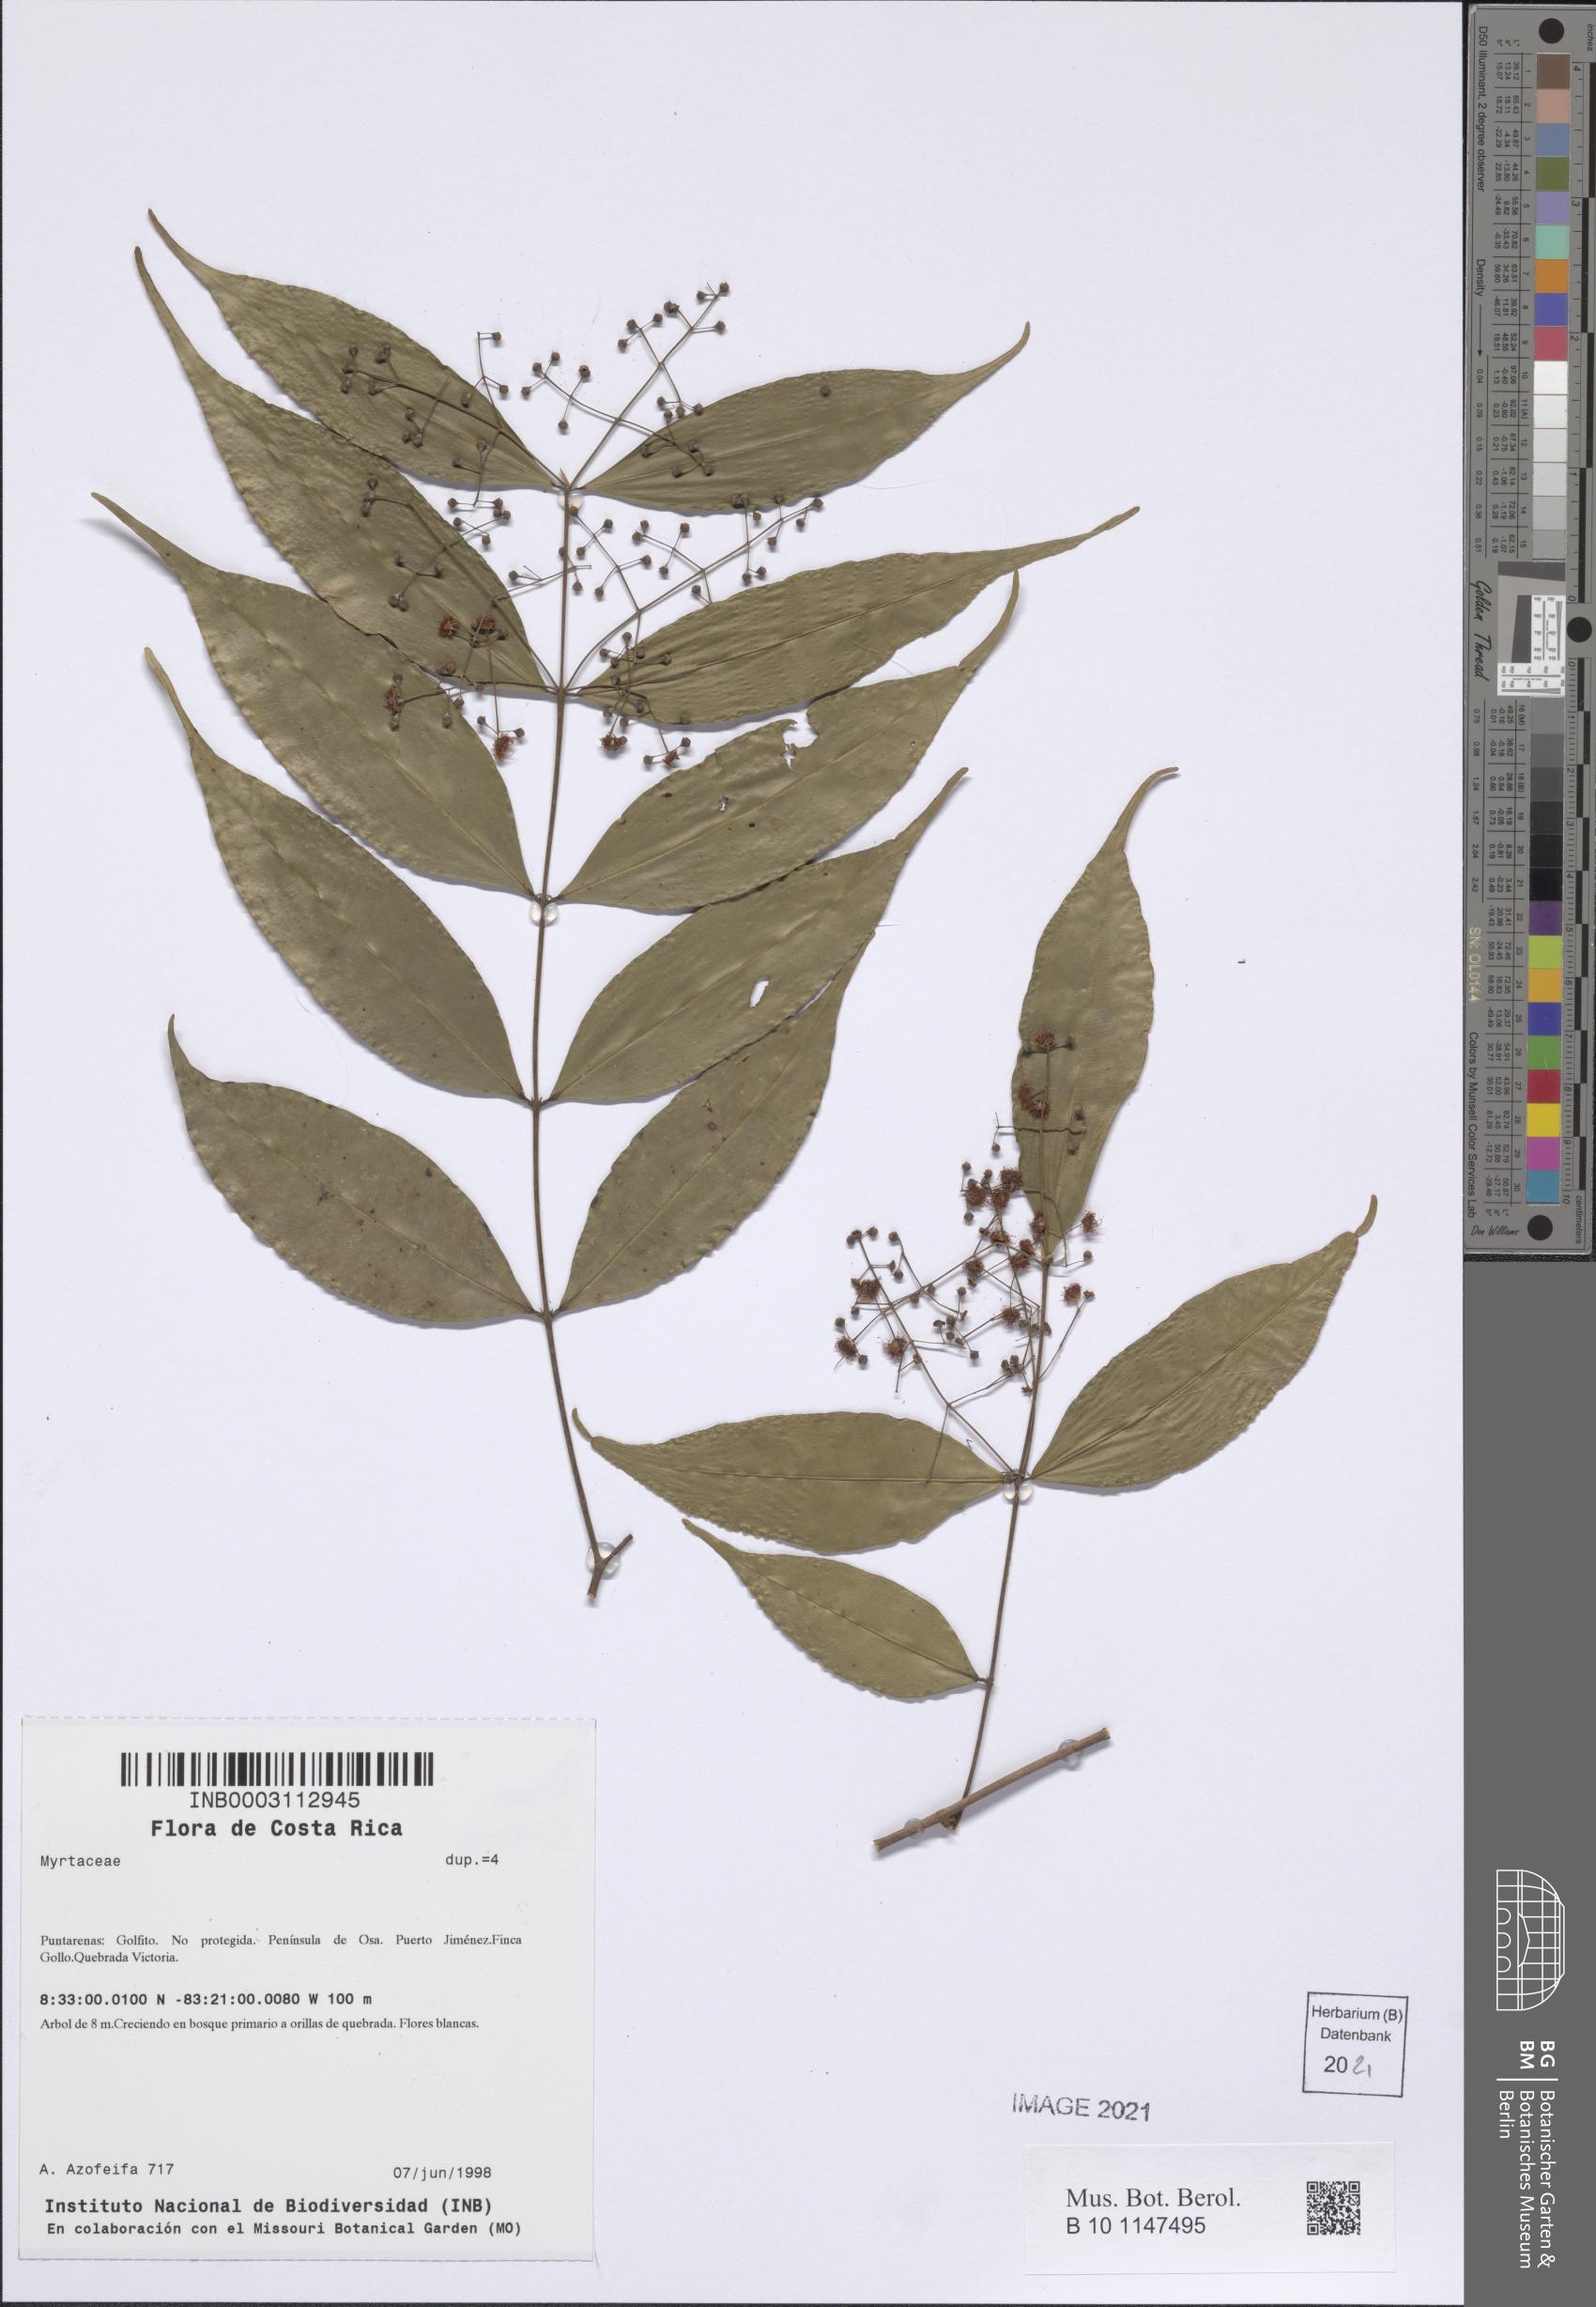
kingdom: Plantae
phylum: Tracheophyta
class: Magnoliopsida
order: Myrtales
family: Myrtaceae
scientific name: Myrtaceae
